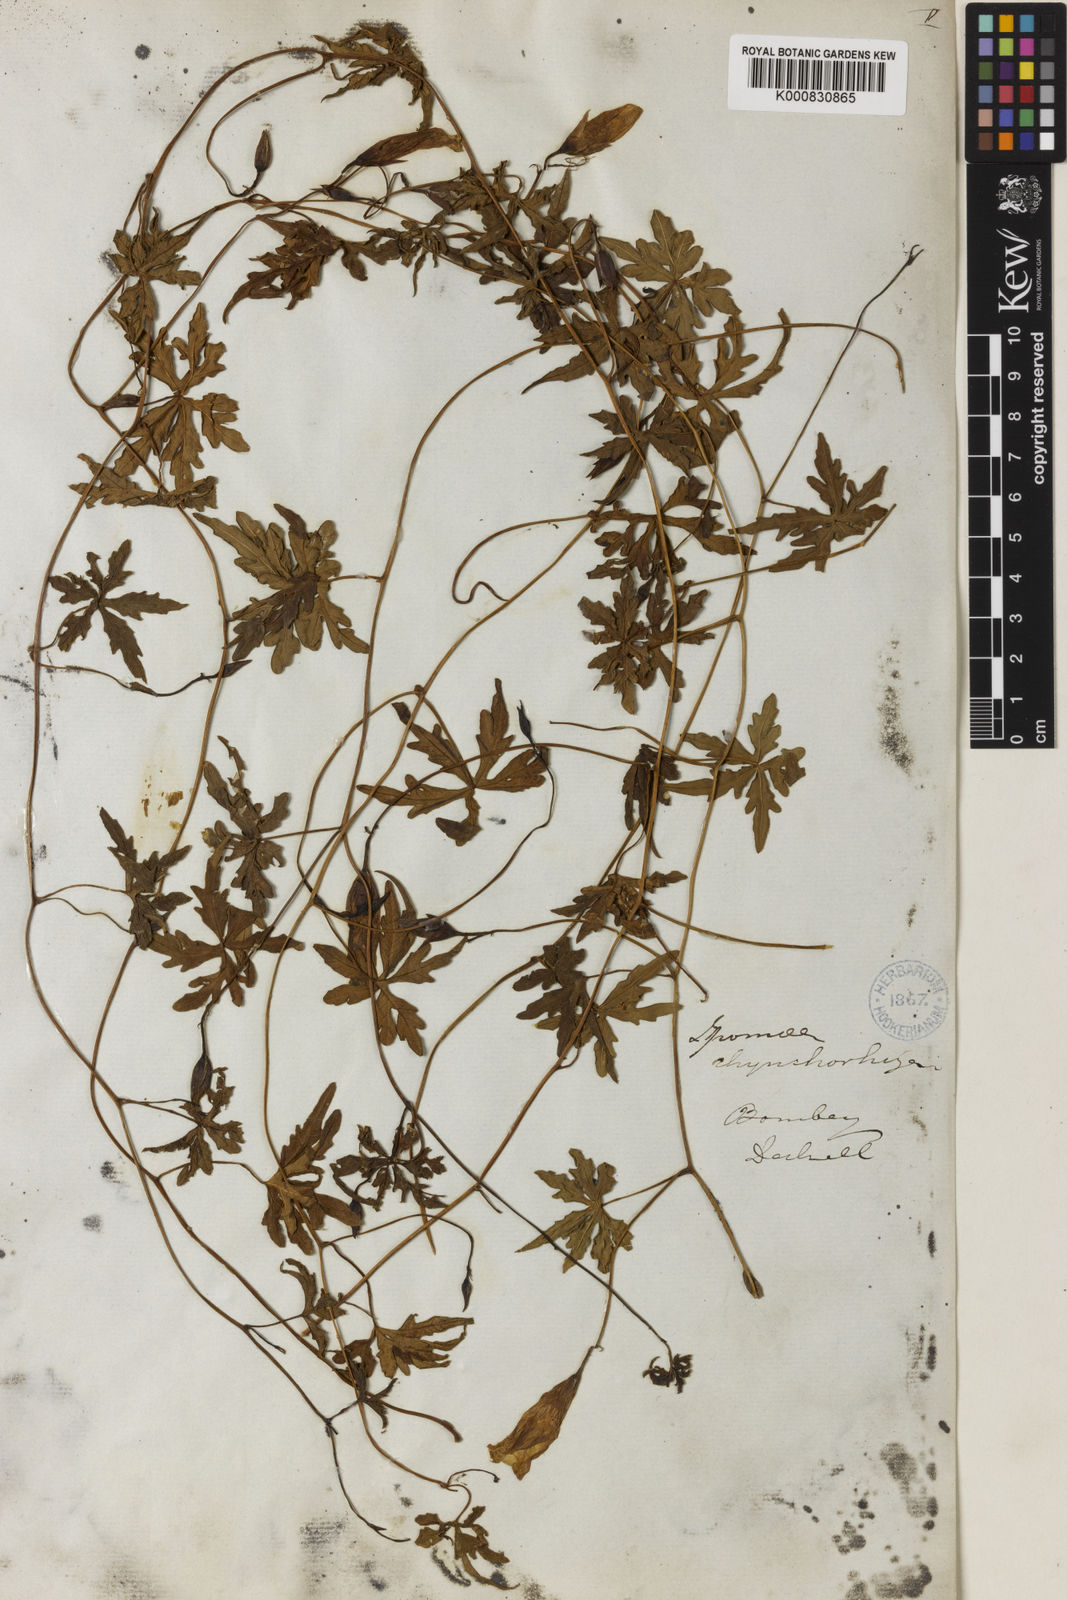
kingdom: Plantae
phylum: Tracheophyta
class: Magnoliopsida
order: Solanales
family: Convolvulaceae
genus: Merremia
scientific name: Merremia
